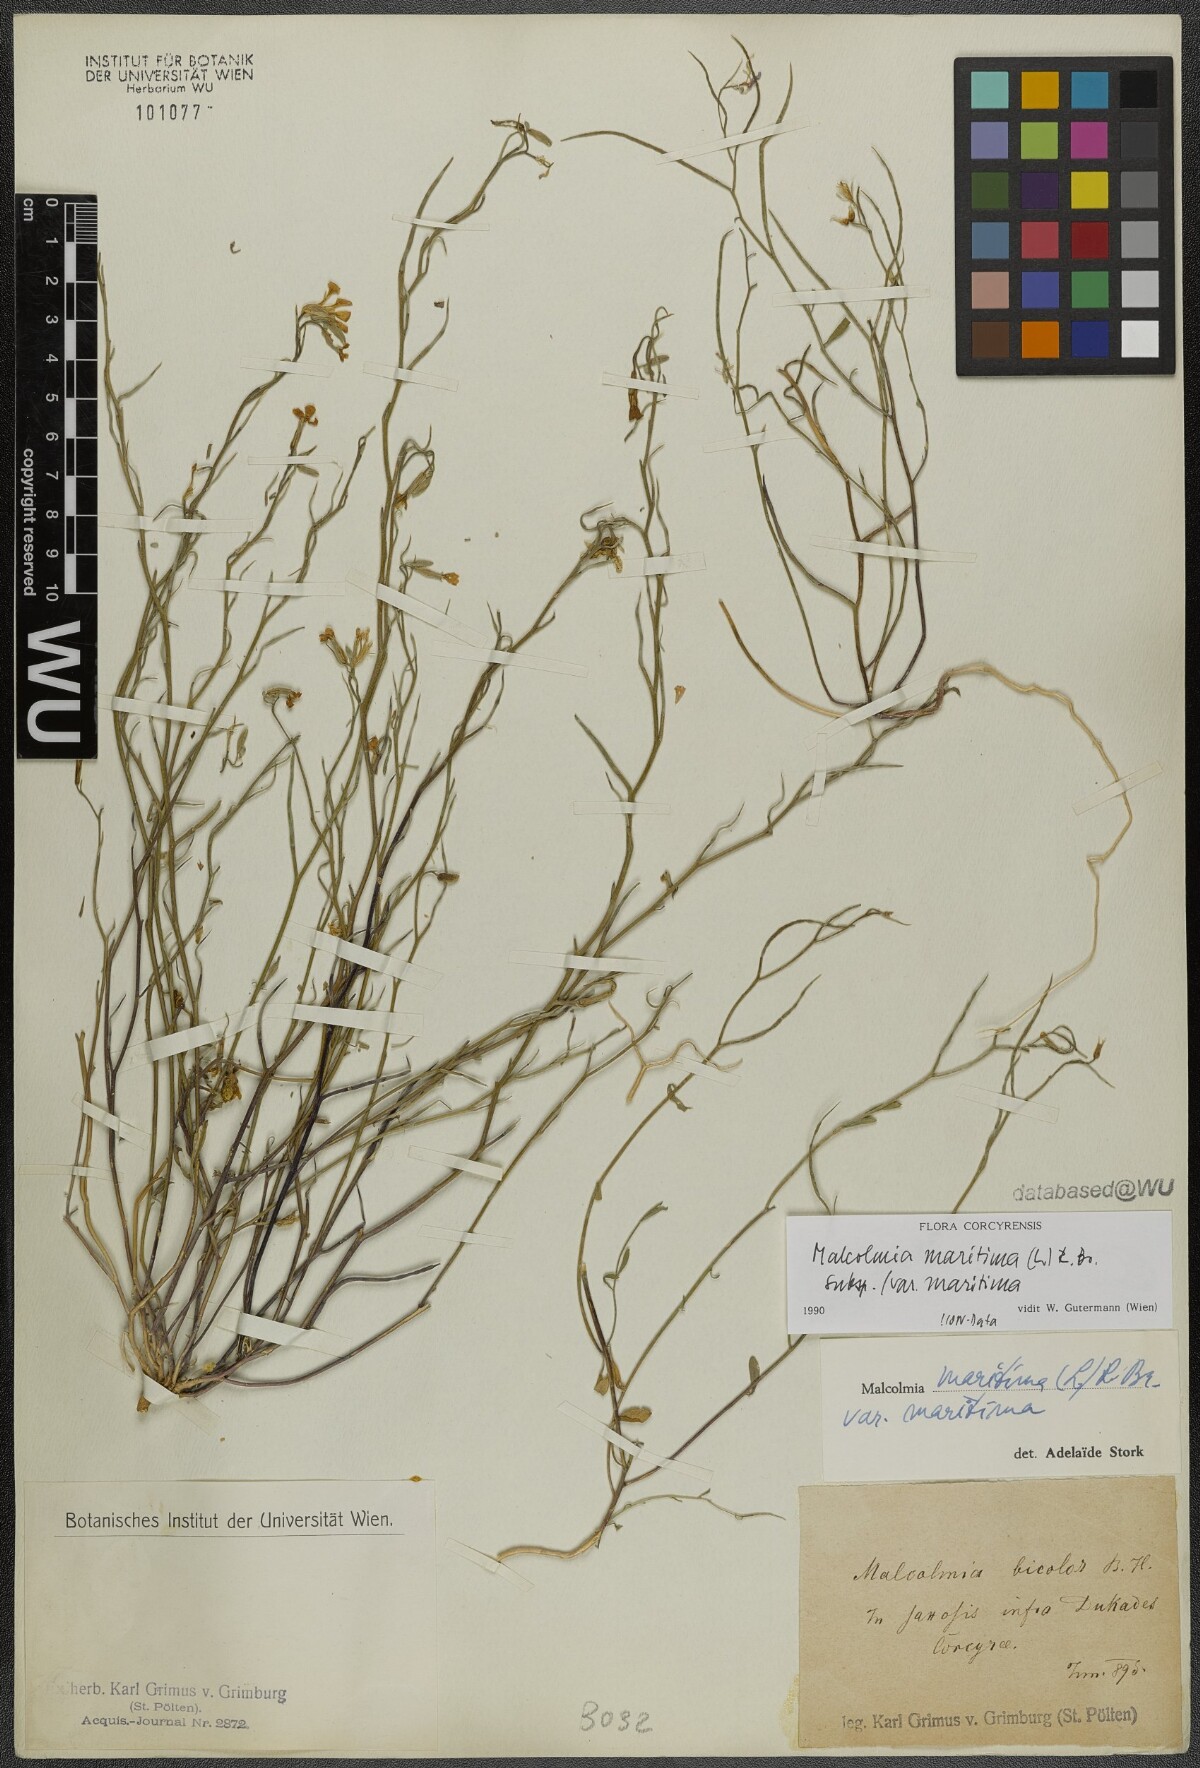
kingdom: Plantae
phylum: Tracheophyta
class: Magnoliopsida
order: Brassicales
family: Brassicaceae
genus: Malcolmia
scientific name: Malcolmia maritima
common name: Virginia stock
